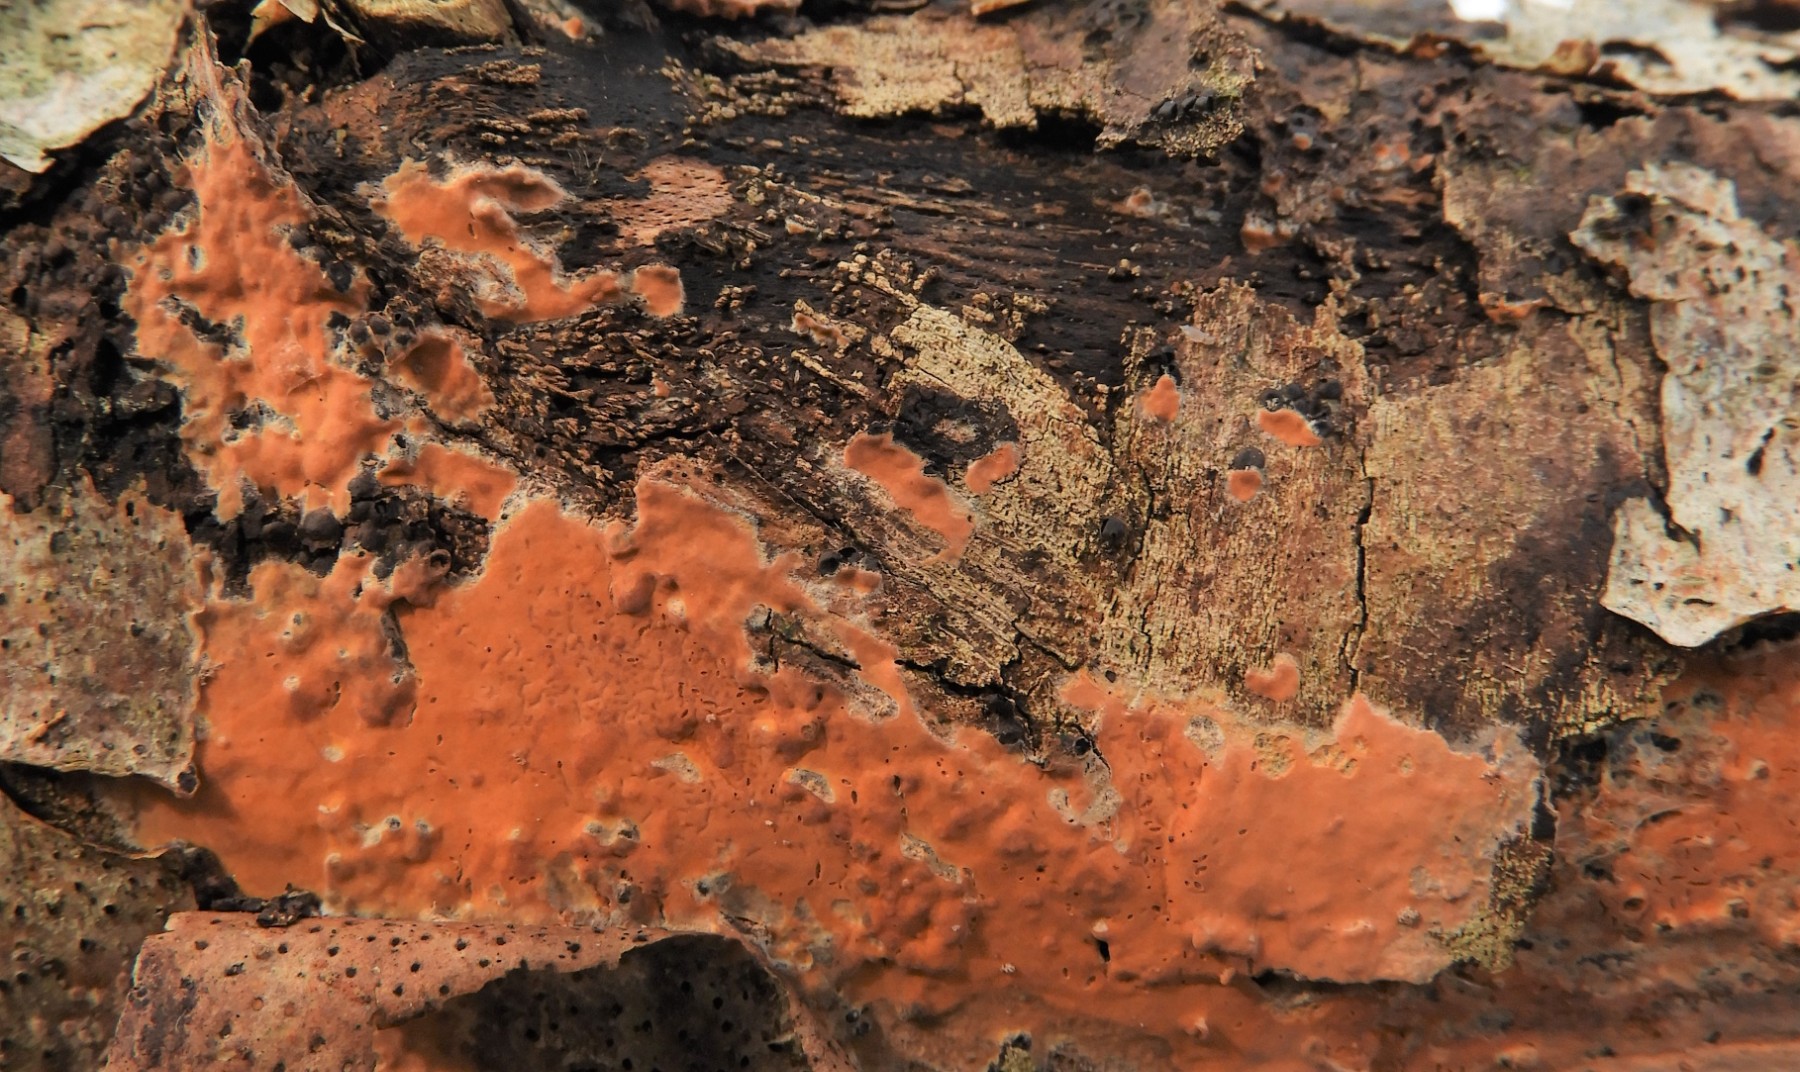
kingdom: Fungi
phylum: Basidiomycota
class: Agaricomycetes
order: Russulales
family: Peniophoraceae
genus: Peniophora
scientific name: Peniophora incarnata
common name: laksefarvet voksskind
